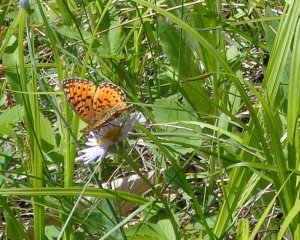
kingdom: Animalia
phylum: Arthropoda
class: Insecta
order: Lepidoptera
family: Nymphalidae
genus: Boloria
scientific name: Boloria selene
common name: Silver-bordered Fritillary
